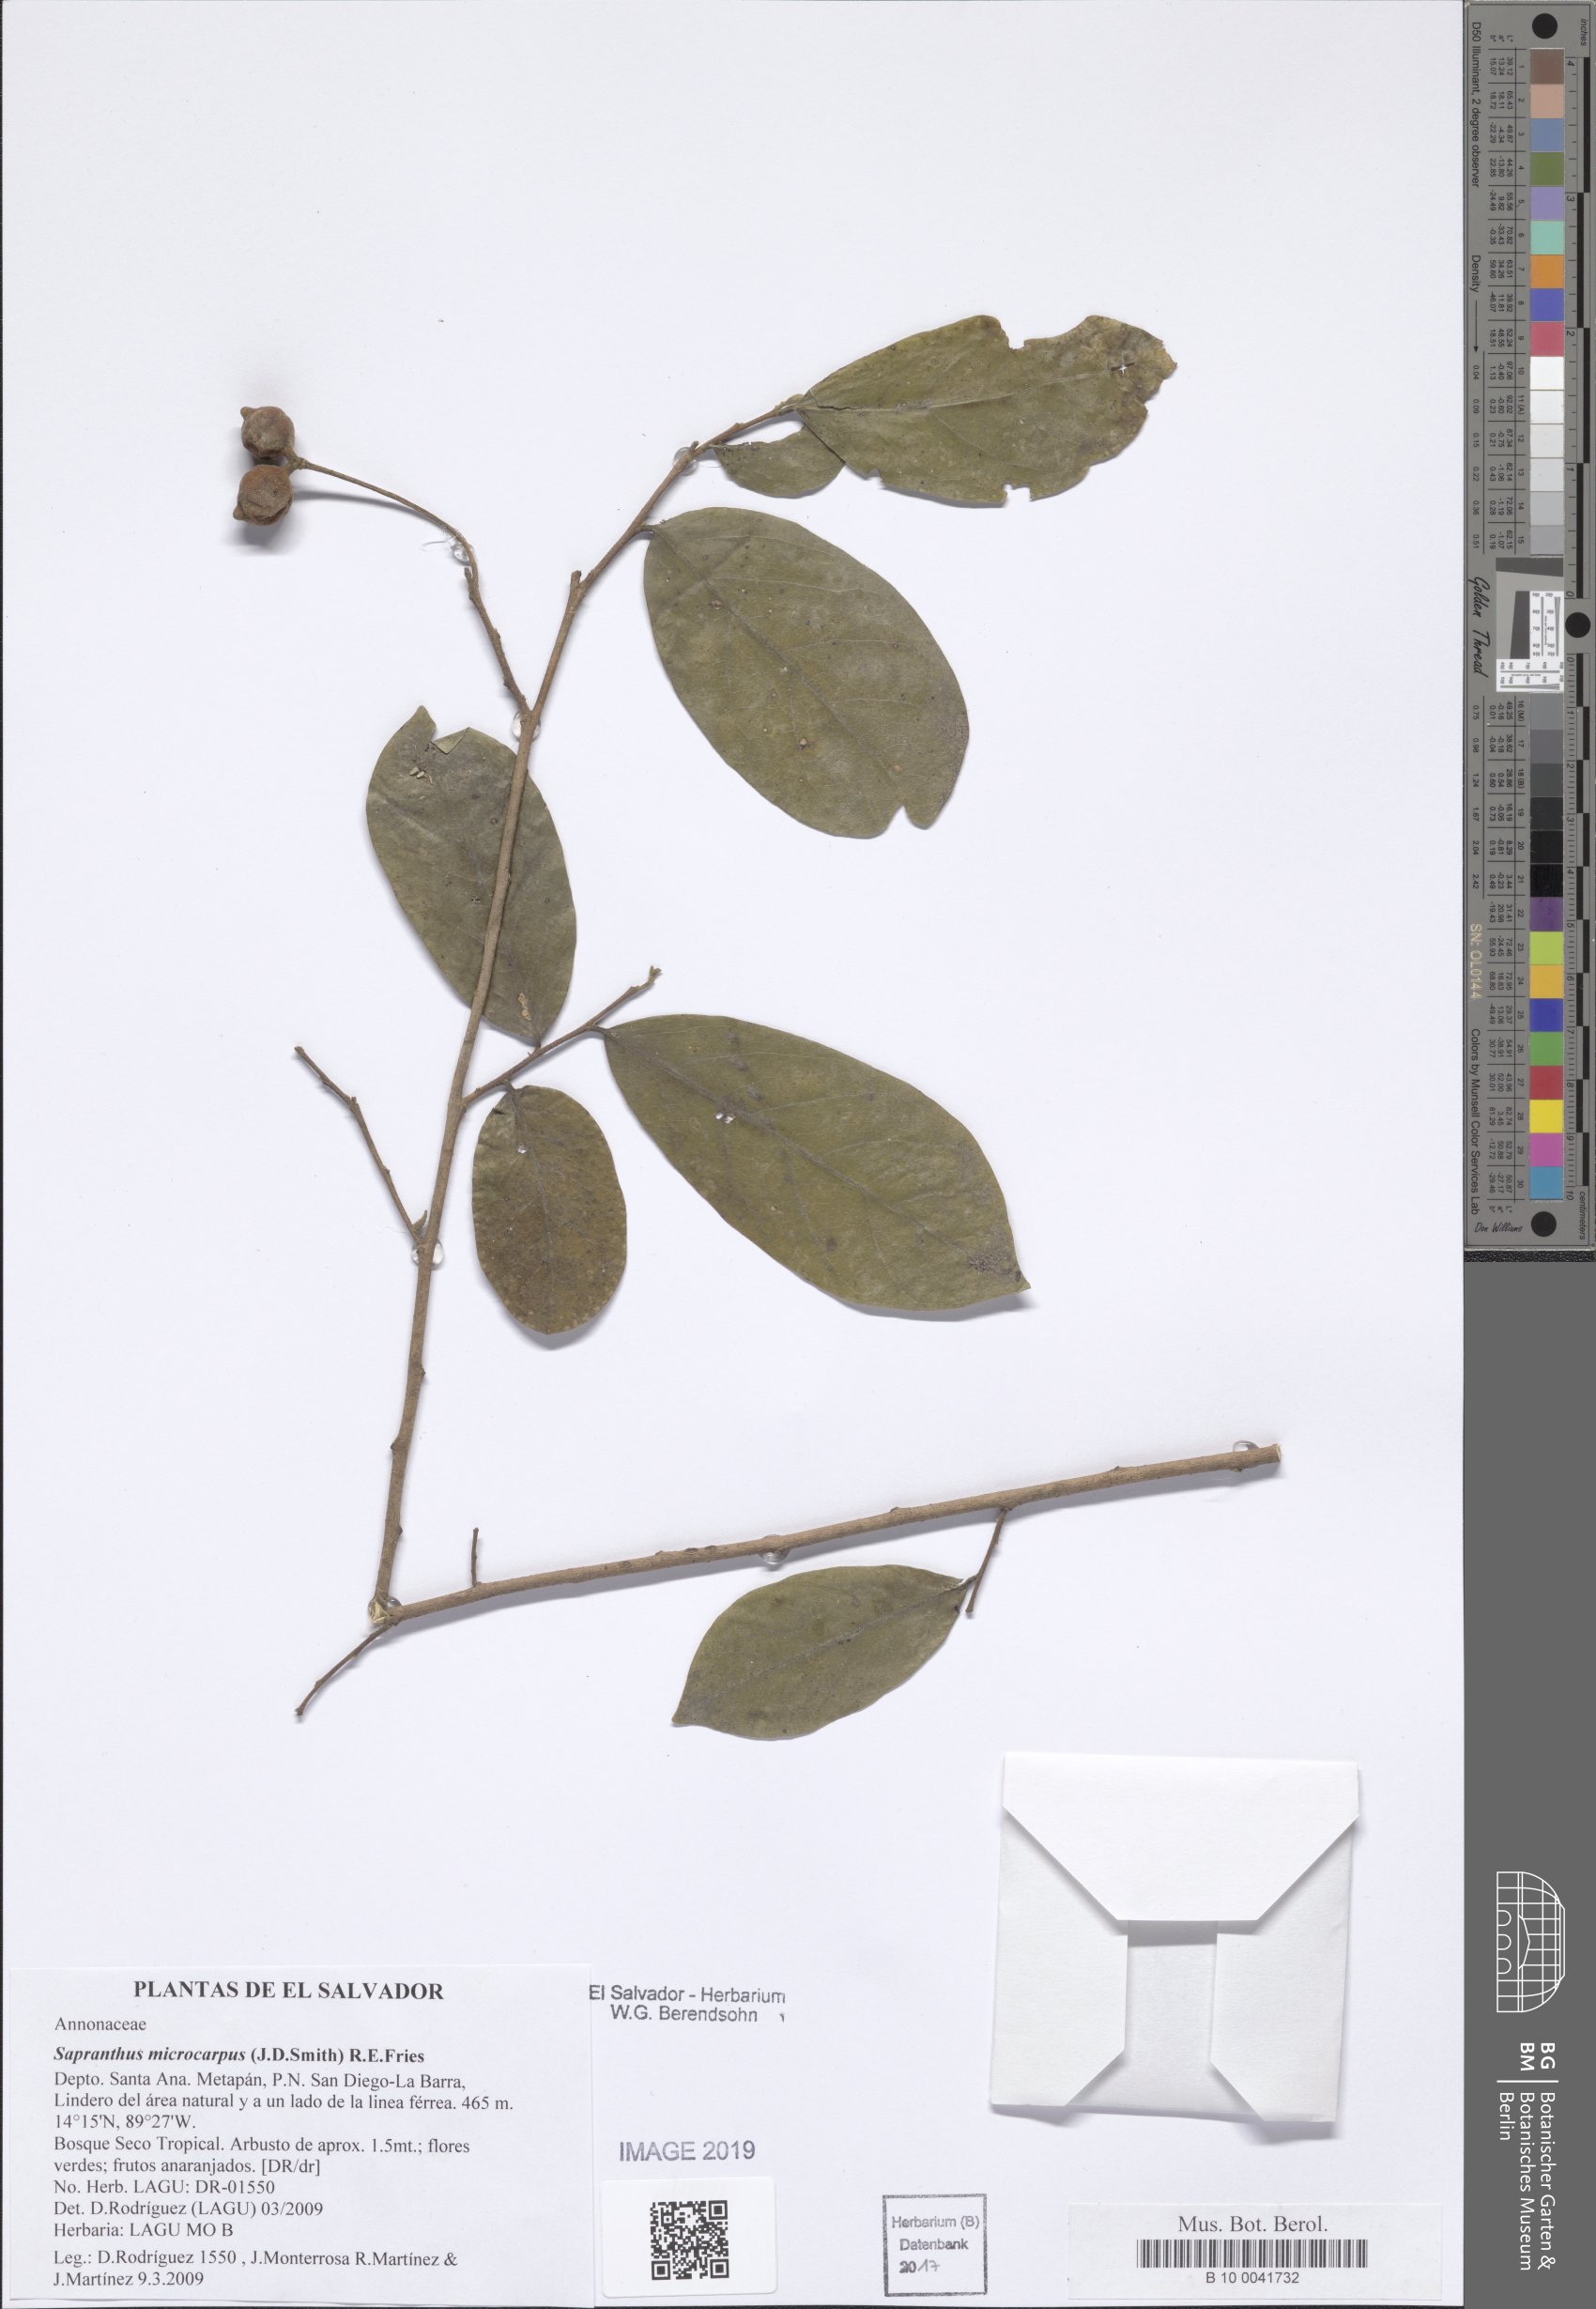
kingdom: Plantae
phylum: Tracheophyta
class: Magnoliopsida
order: Magnoliales
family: Annonaceae
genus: Sapranthus
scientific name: Sapranthus microcarpus
